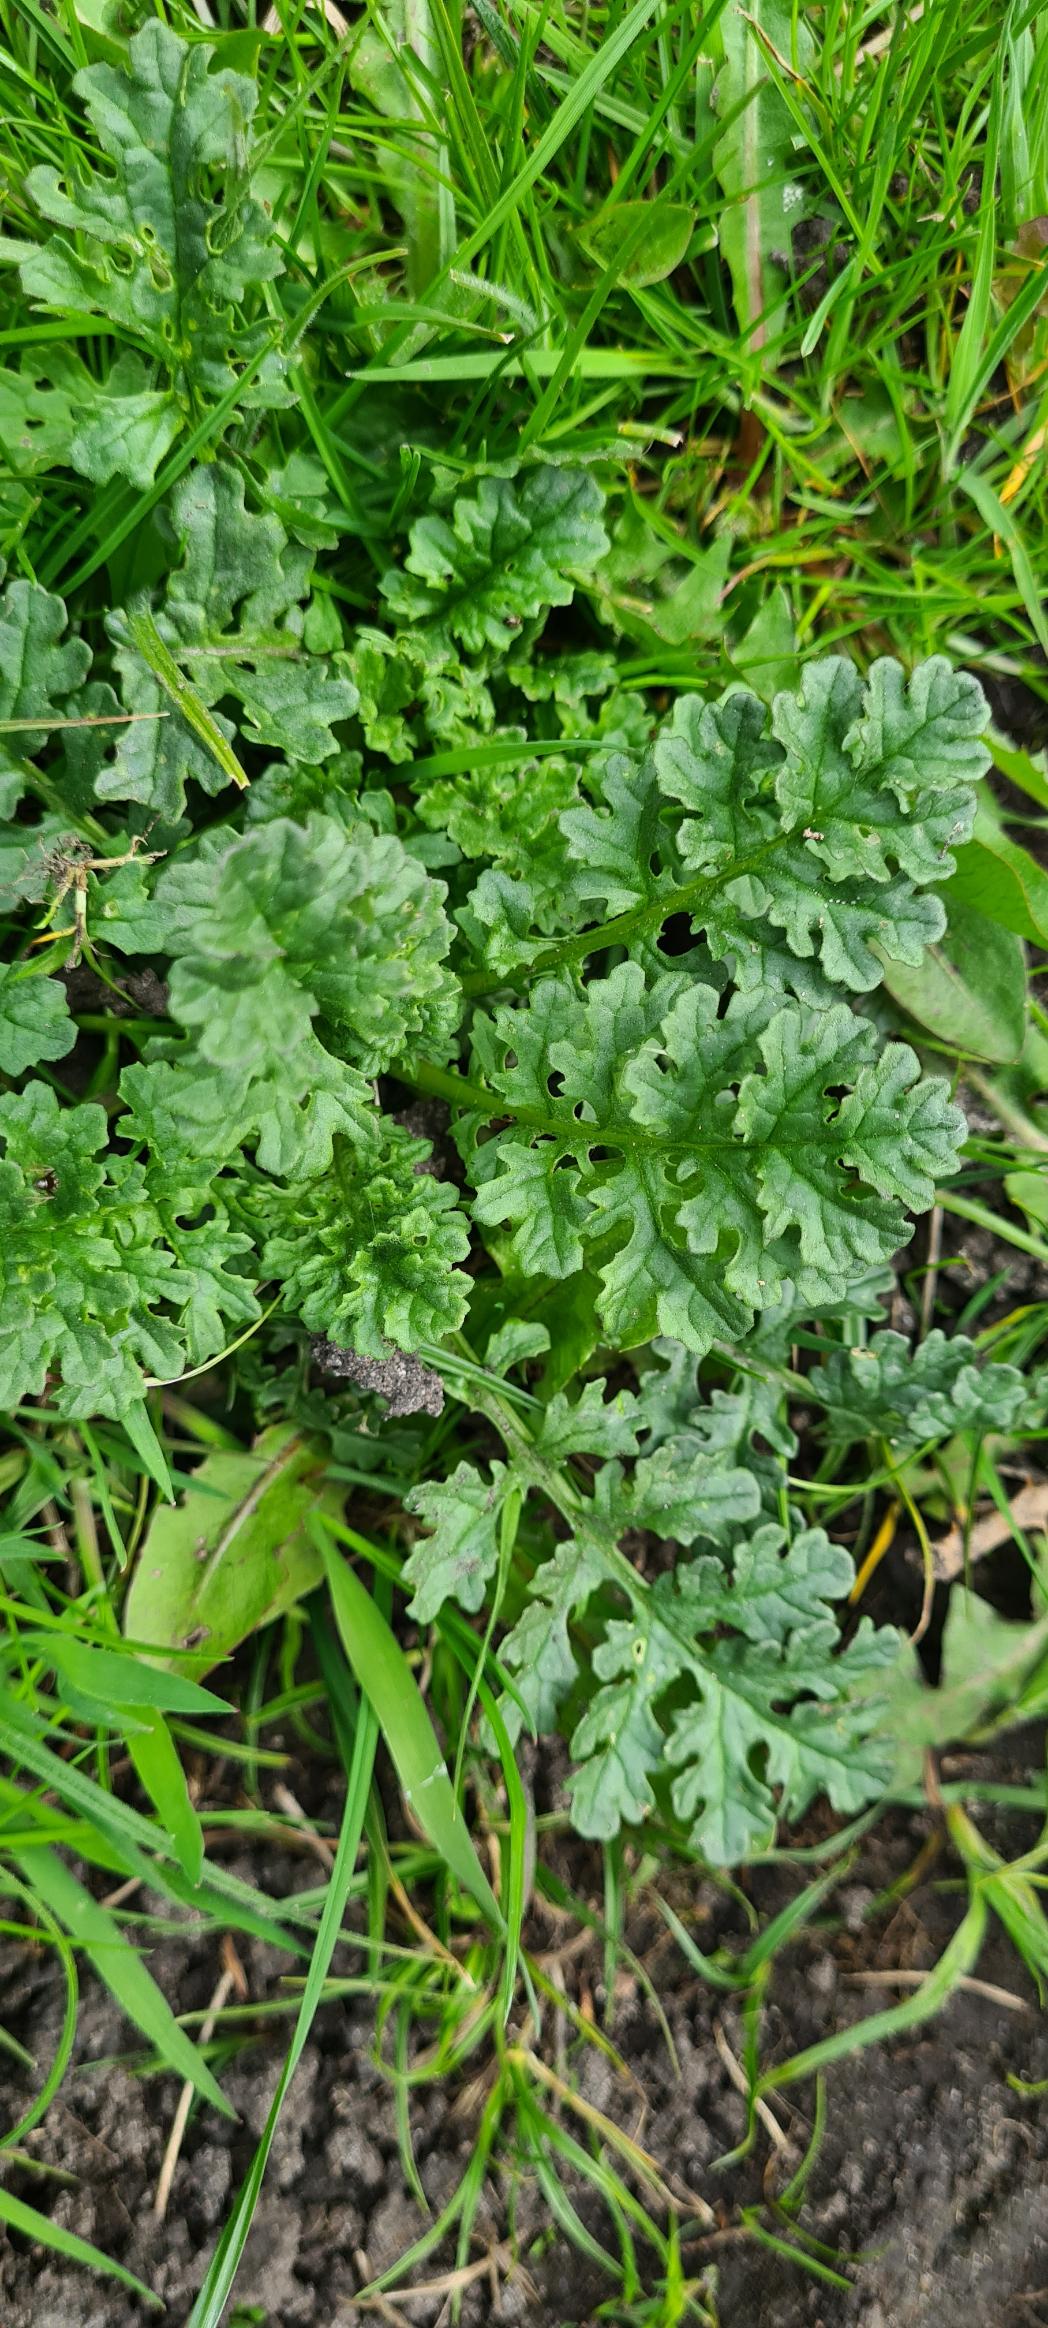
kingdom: Plantae
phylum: Tracheophyta
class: Magnoliopsida
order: Asterales
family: Asteraceae
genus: Jacobaea
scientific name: Jacobaea vulgaris
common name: Eng-brandbæger
